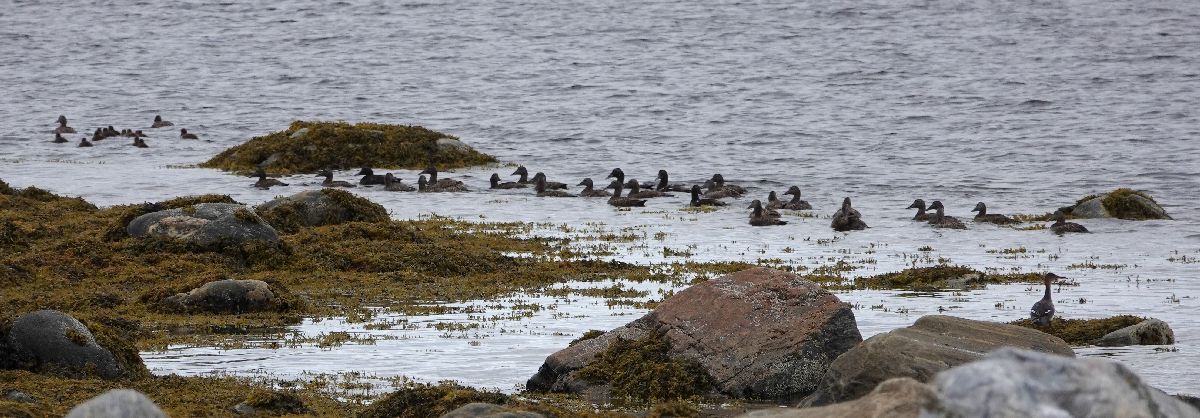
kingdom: Animalia
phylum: Chordata
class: Aves
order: Anseriformes
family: Anatidae
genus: Somateria
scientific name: Somateria mollissima
